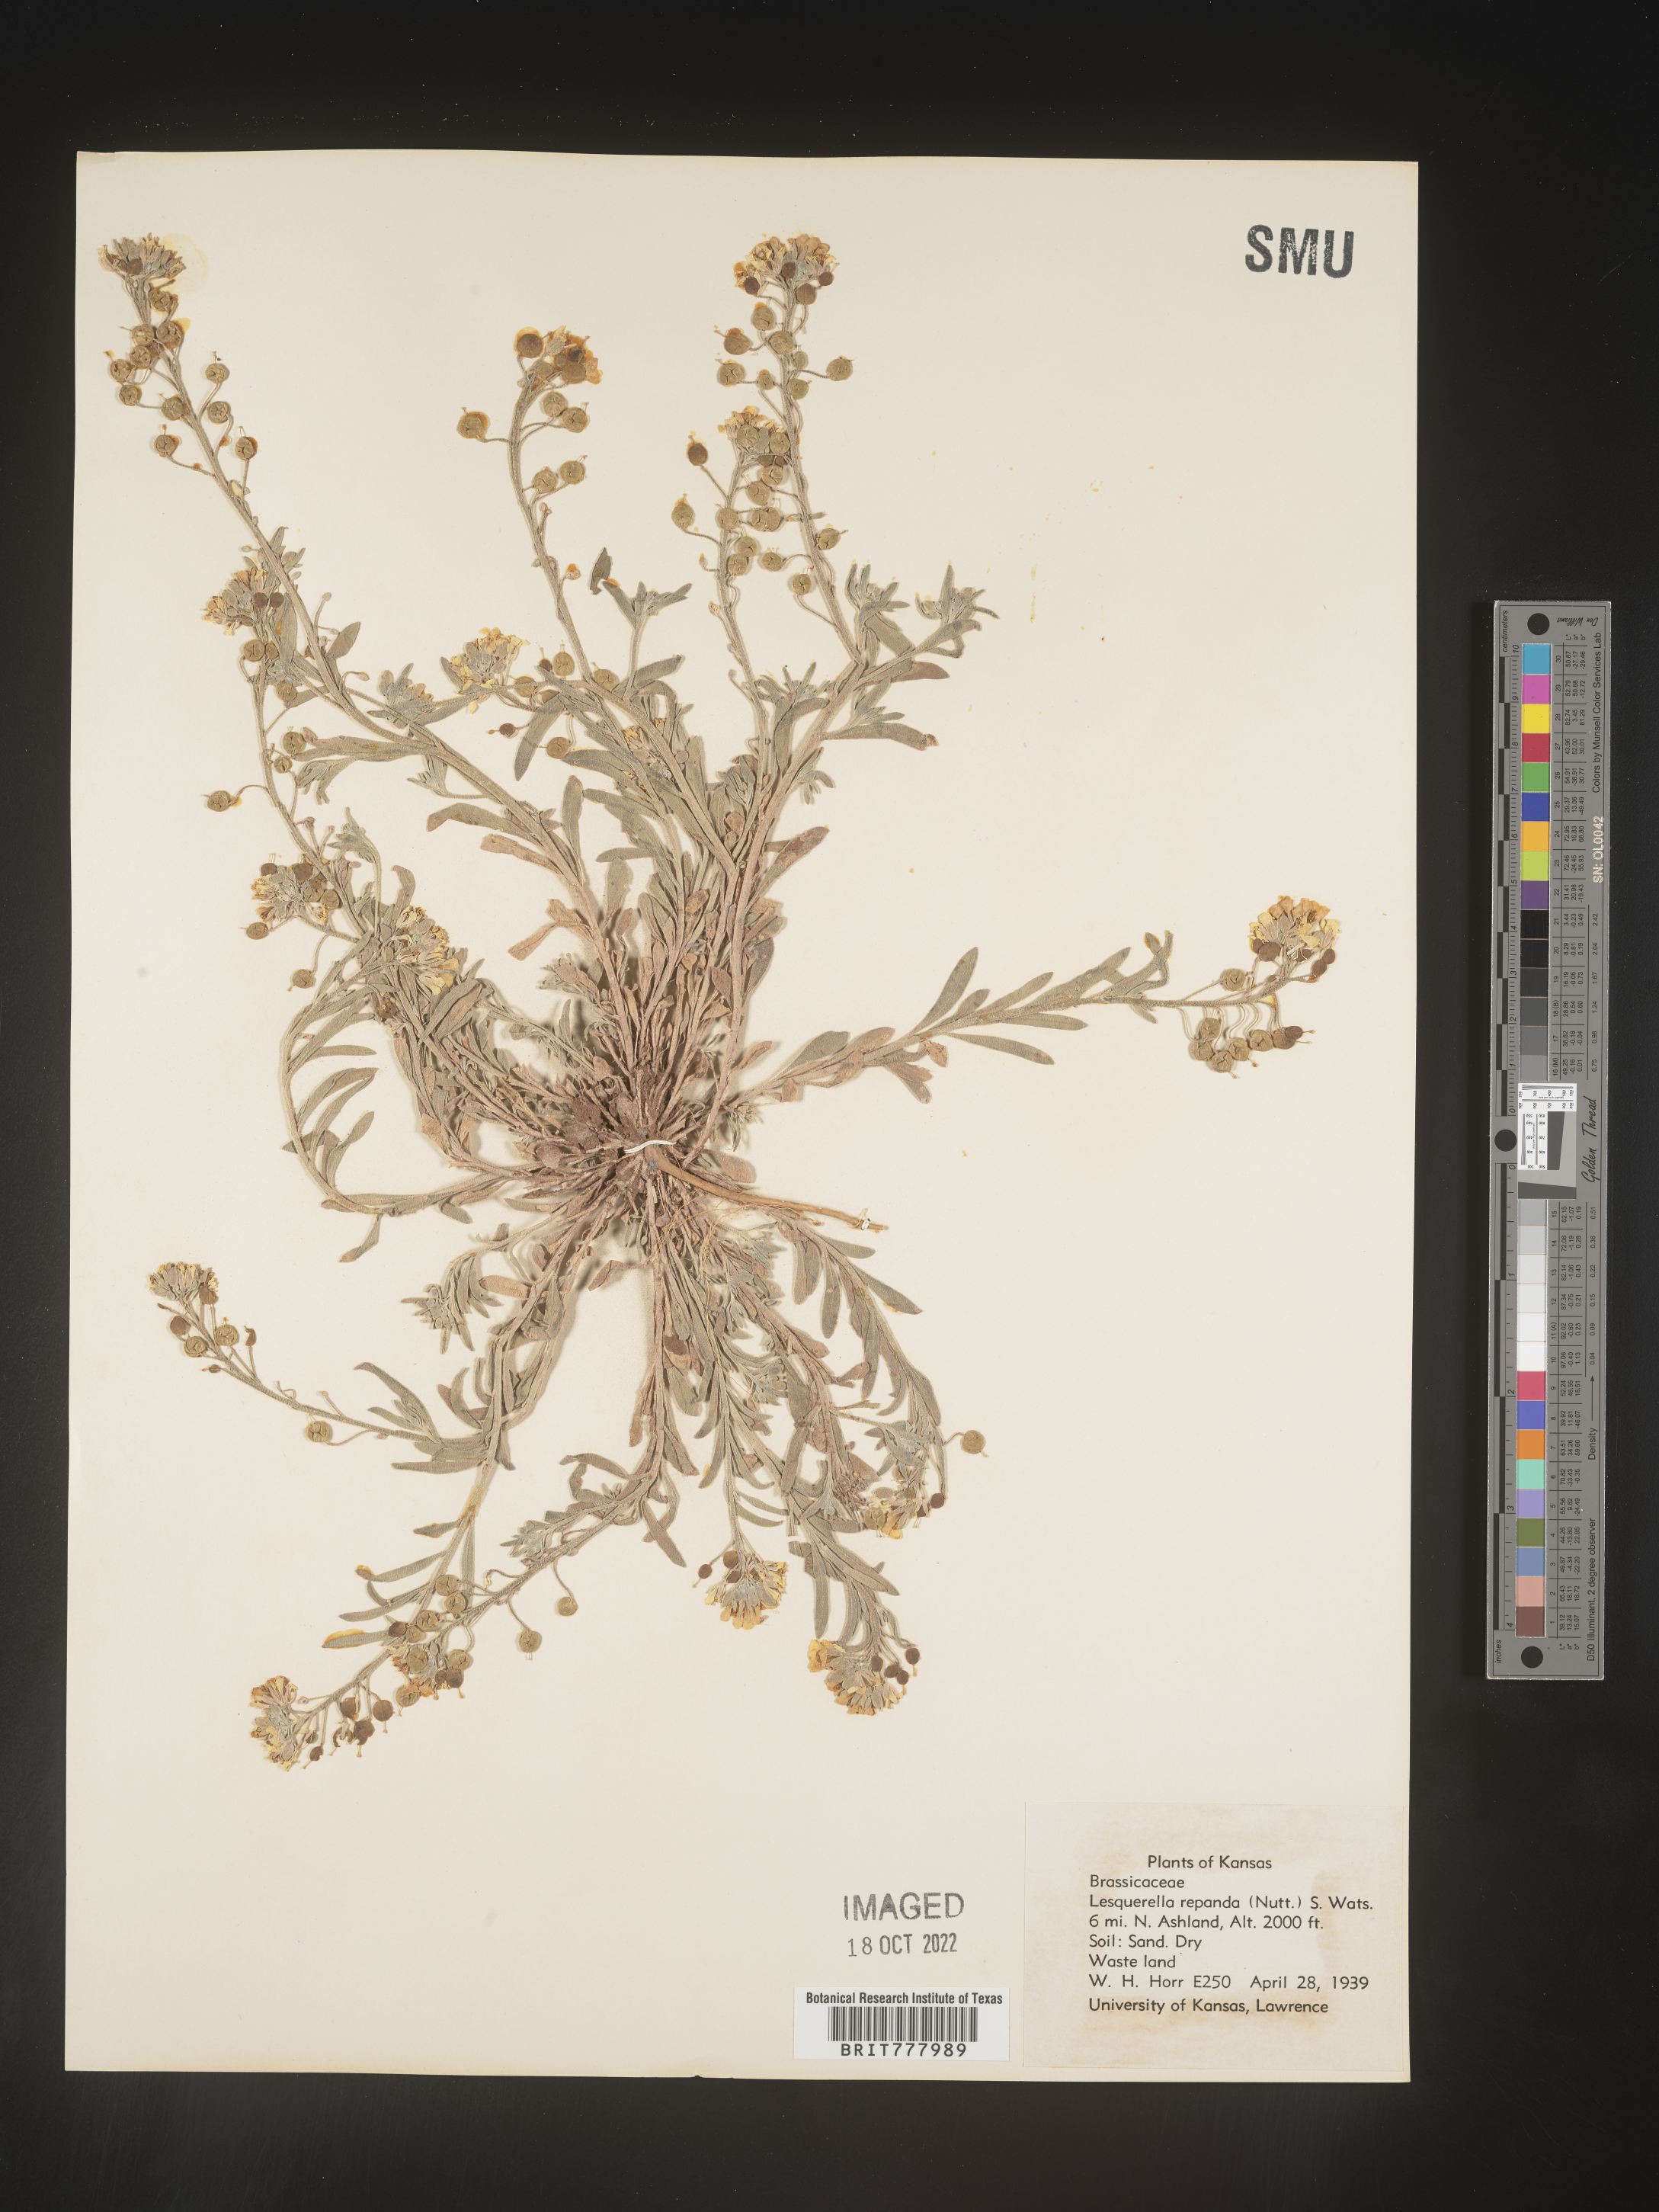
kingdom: Chromista
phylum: Cercozoa
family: Psammonobiotidae
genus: Lesquerella
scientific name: Lesquerella
